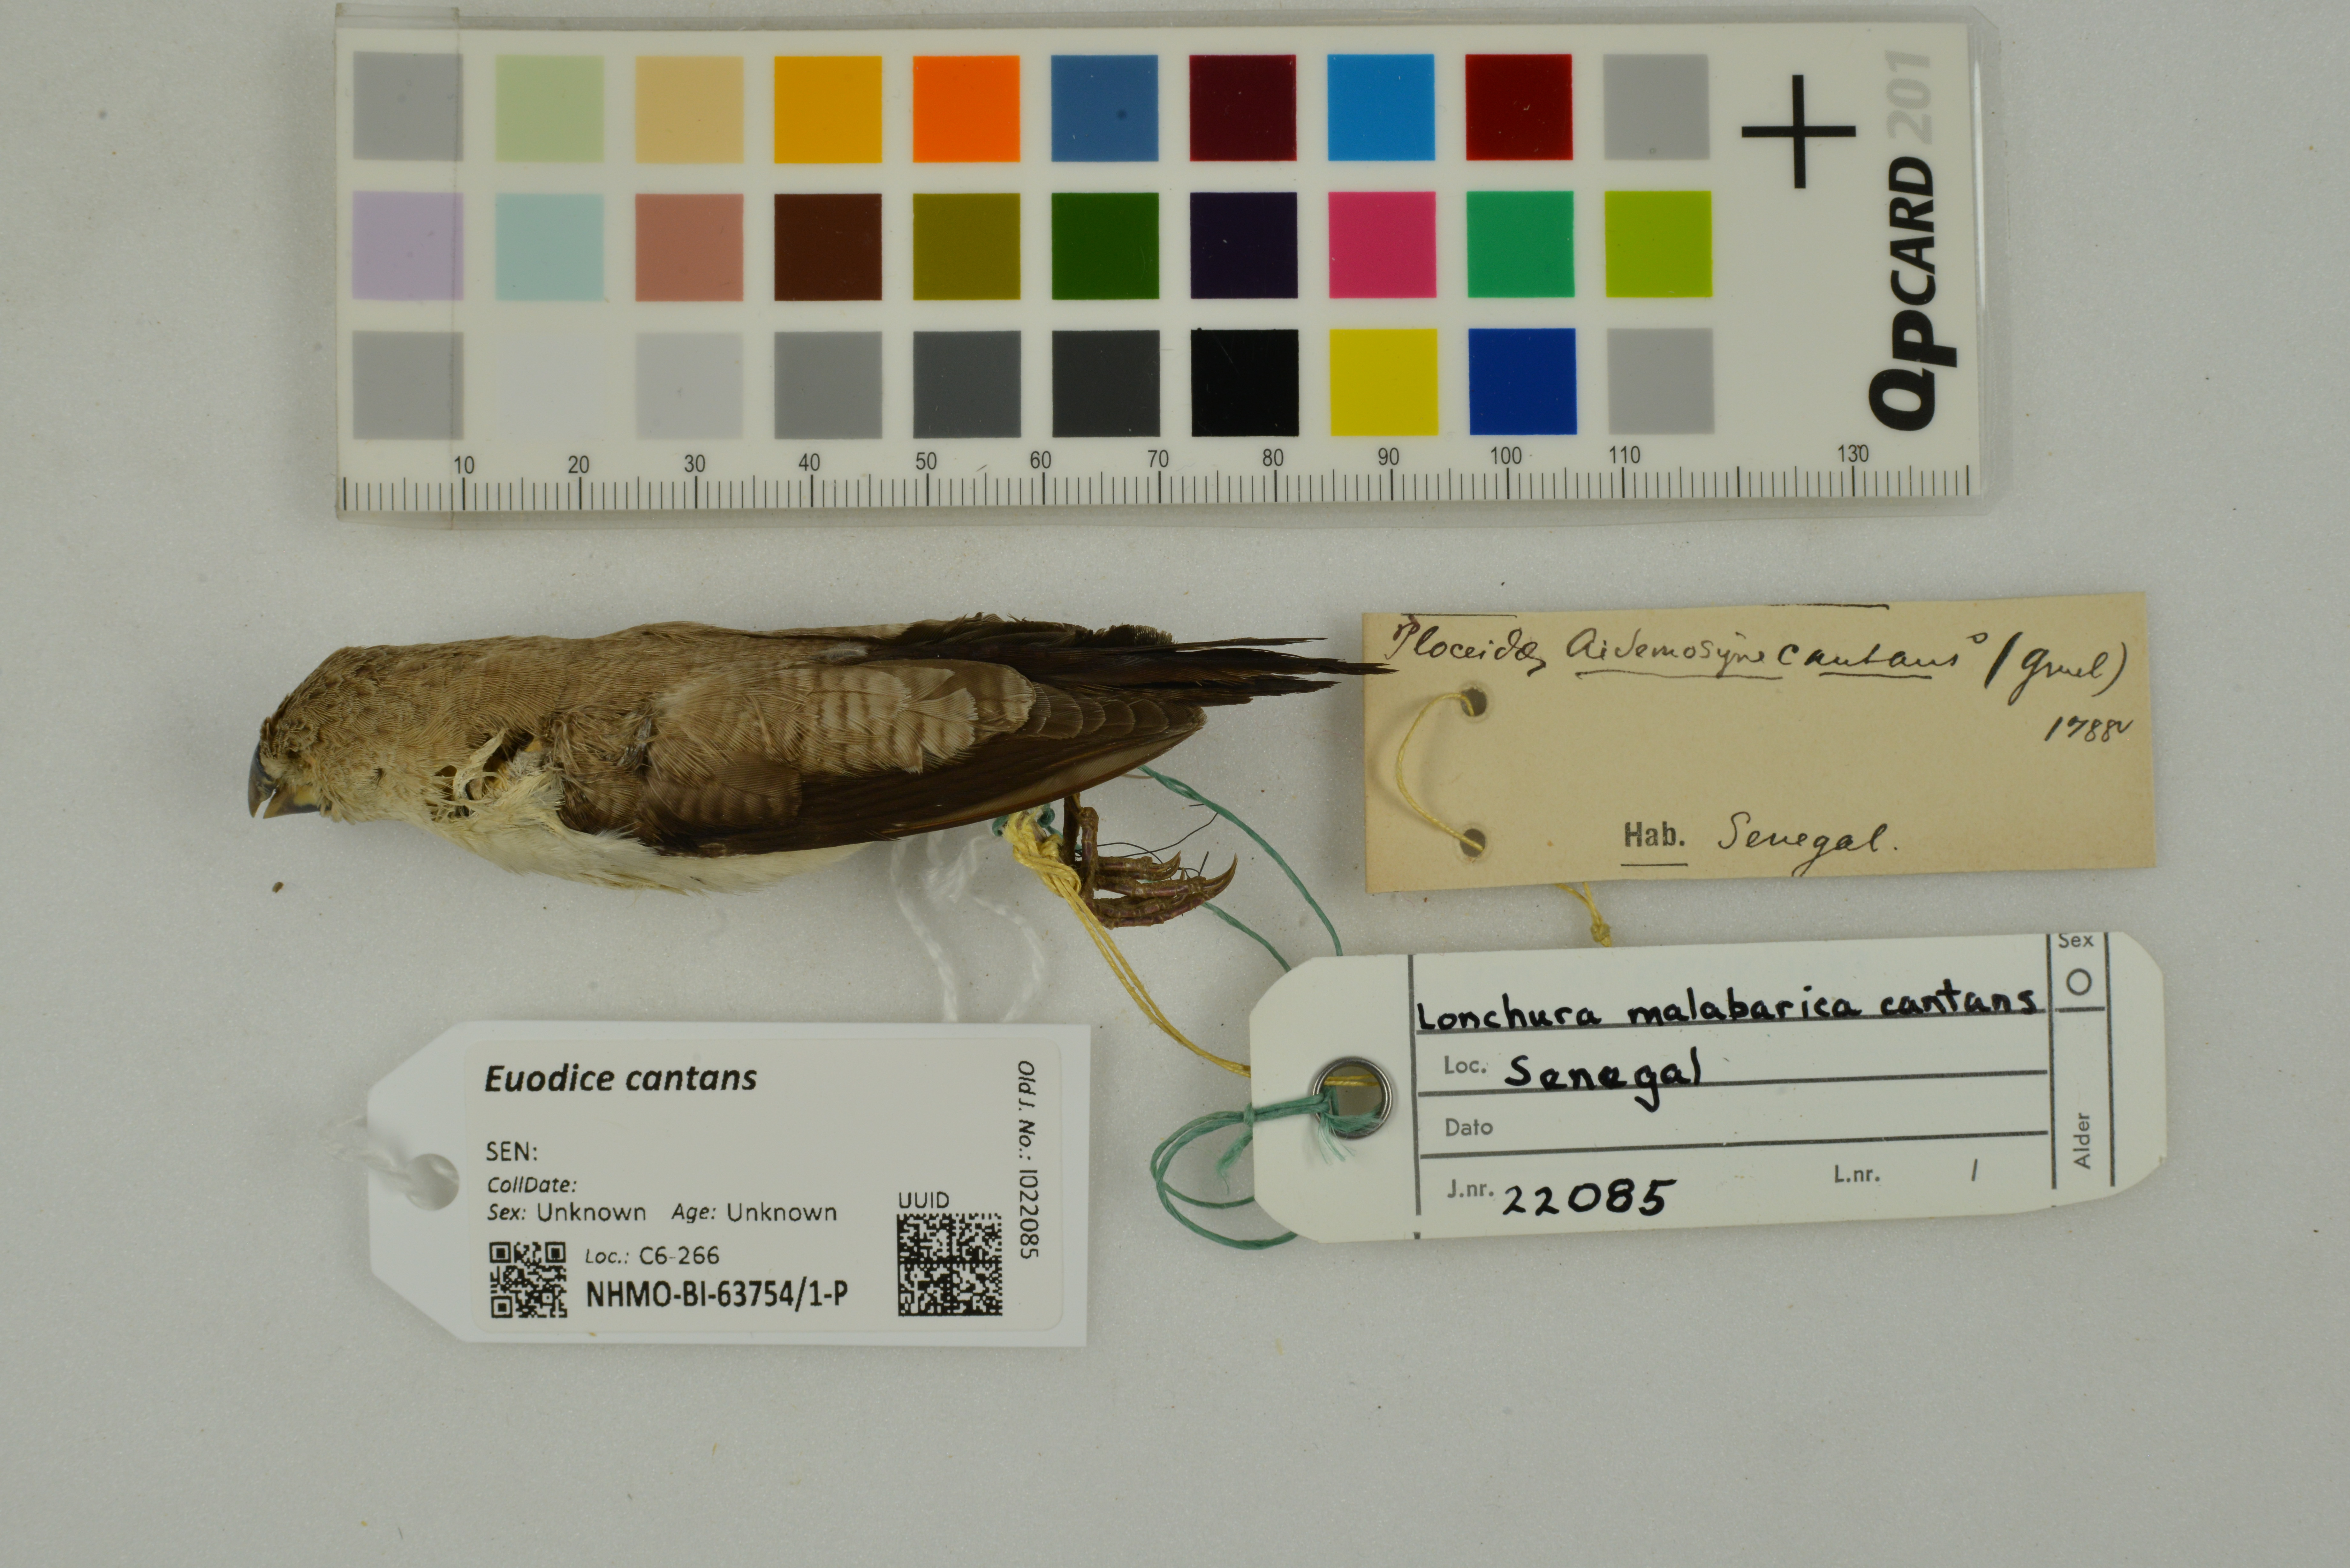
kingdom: Animalia
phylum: Chordata
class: Aves
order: Passeriformes
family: Estrildidae
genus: Euodice
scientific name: Euodice cantans
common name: African silverbill
